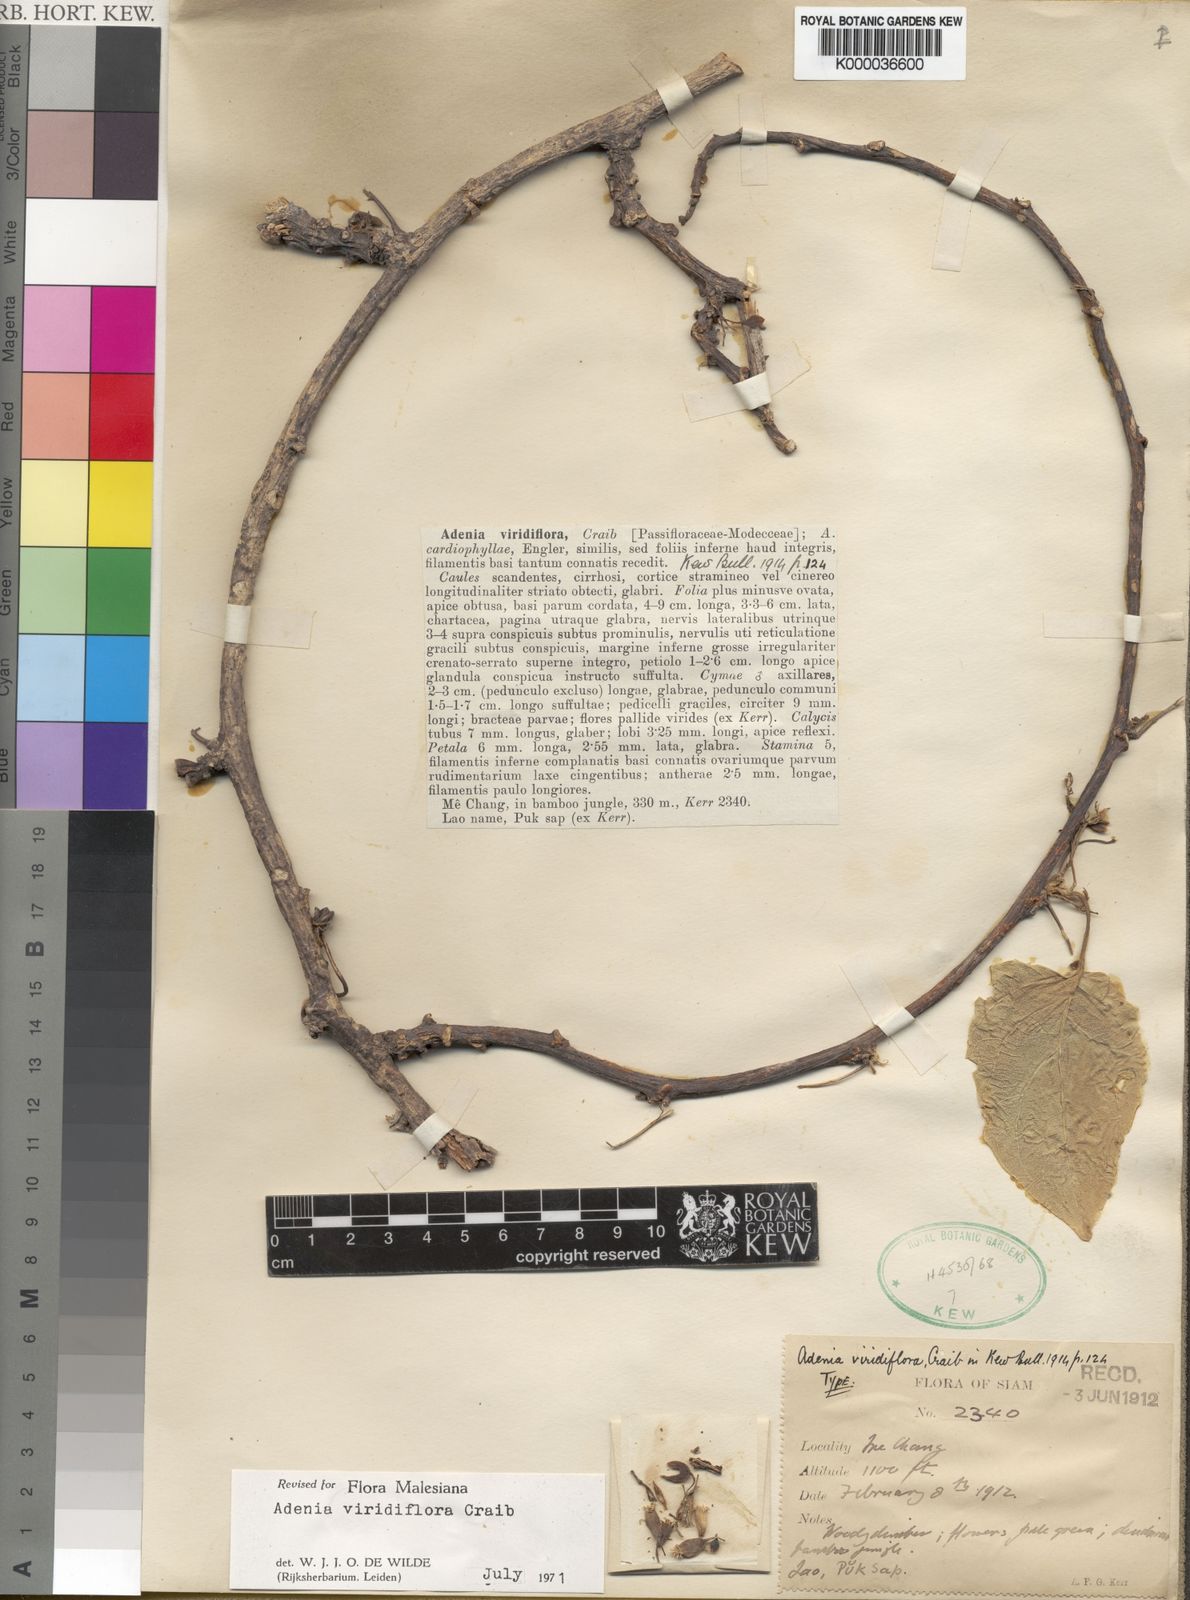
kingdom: Plantae
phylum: Tracheophyta
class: Magnoliopsida
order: Malpighiales
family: Passifloraceae
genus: Adenia
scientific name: Adenia viridiflora
